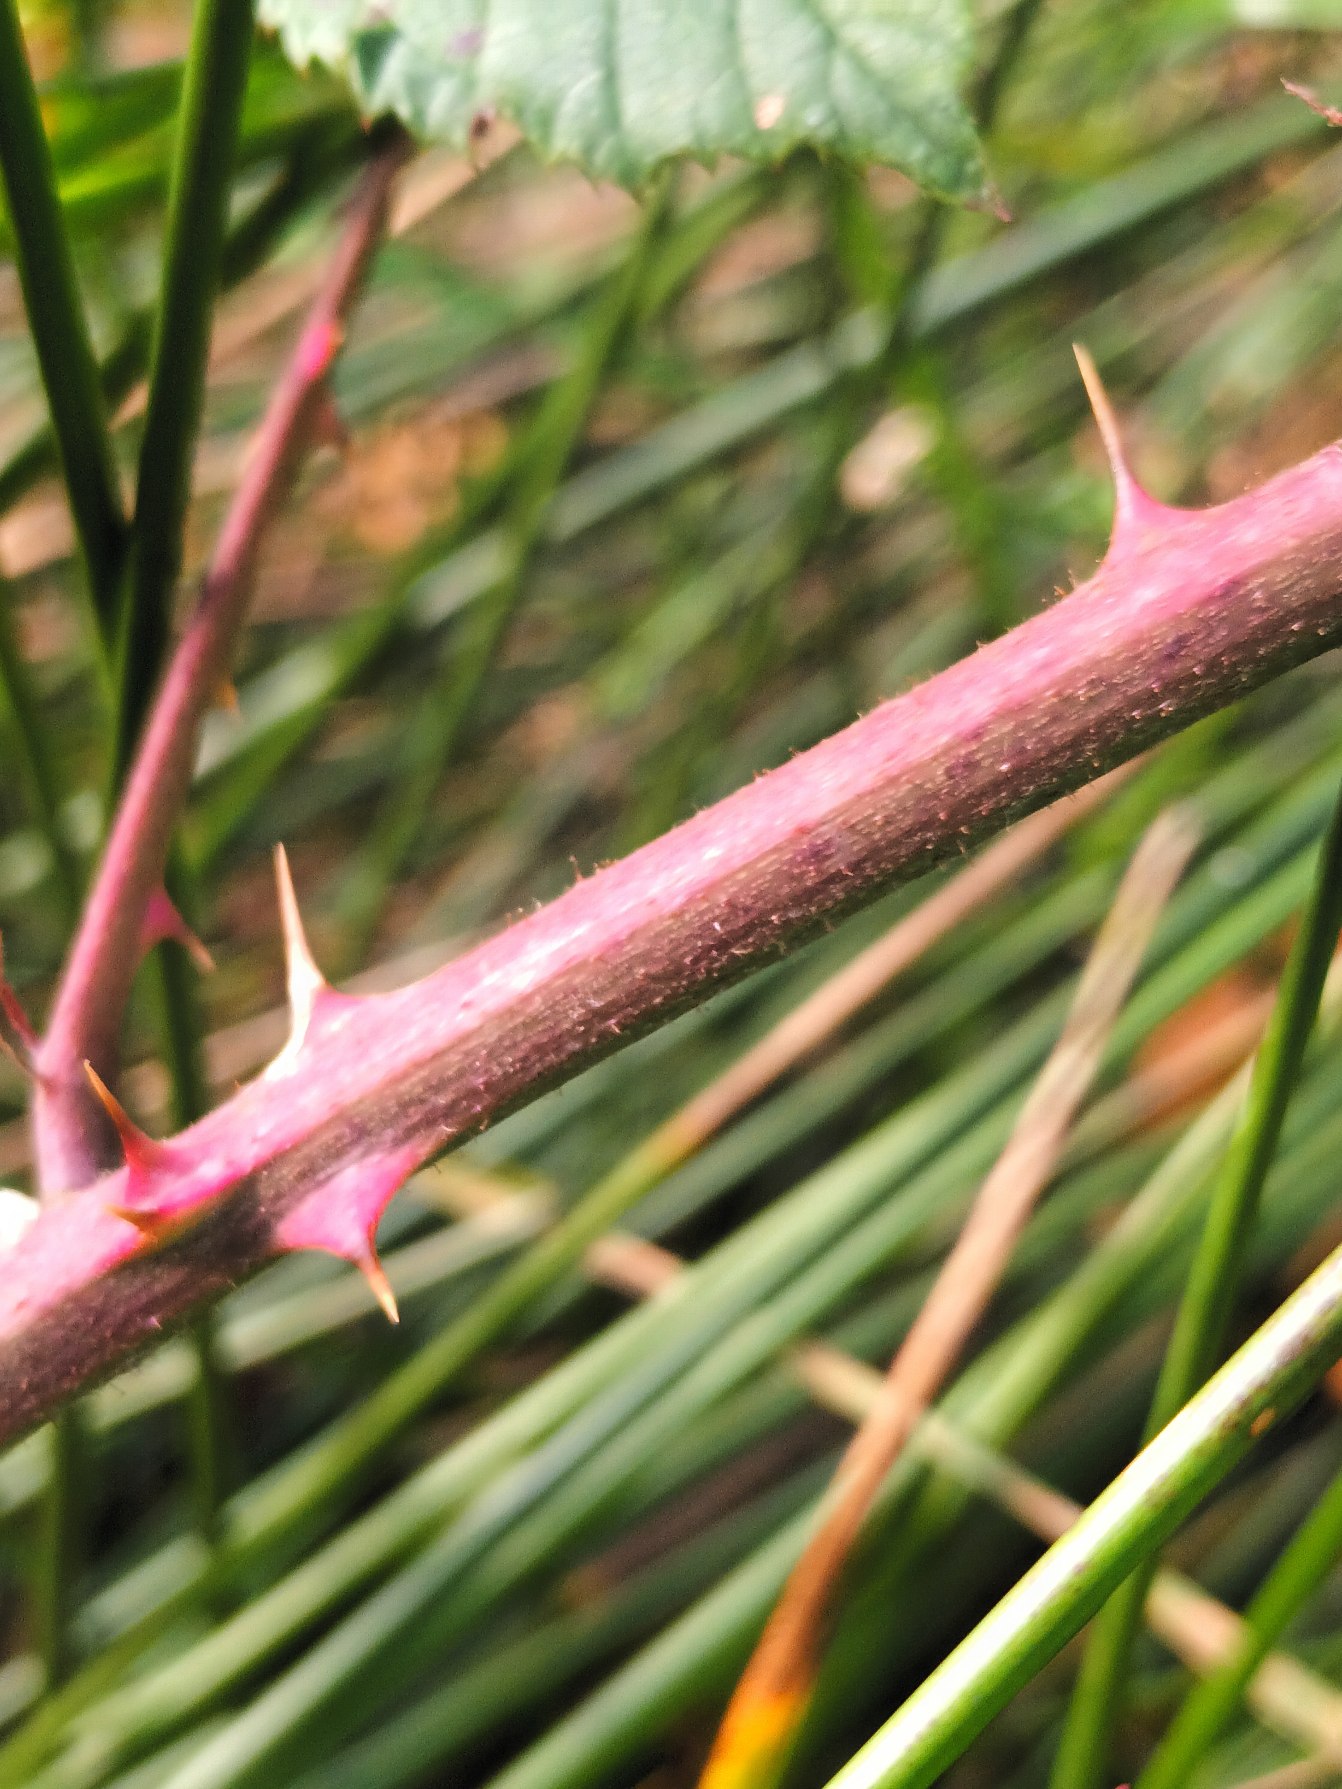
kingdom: Plantae
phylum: Tracheophyta
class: Magnoliopsida
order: Rosales
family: Rosaceae
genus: Rubus
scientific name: Rubus radula
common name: Rasperu brombær
